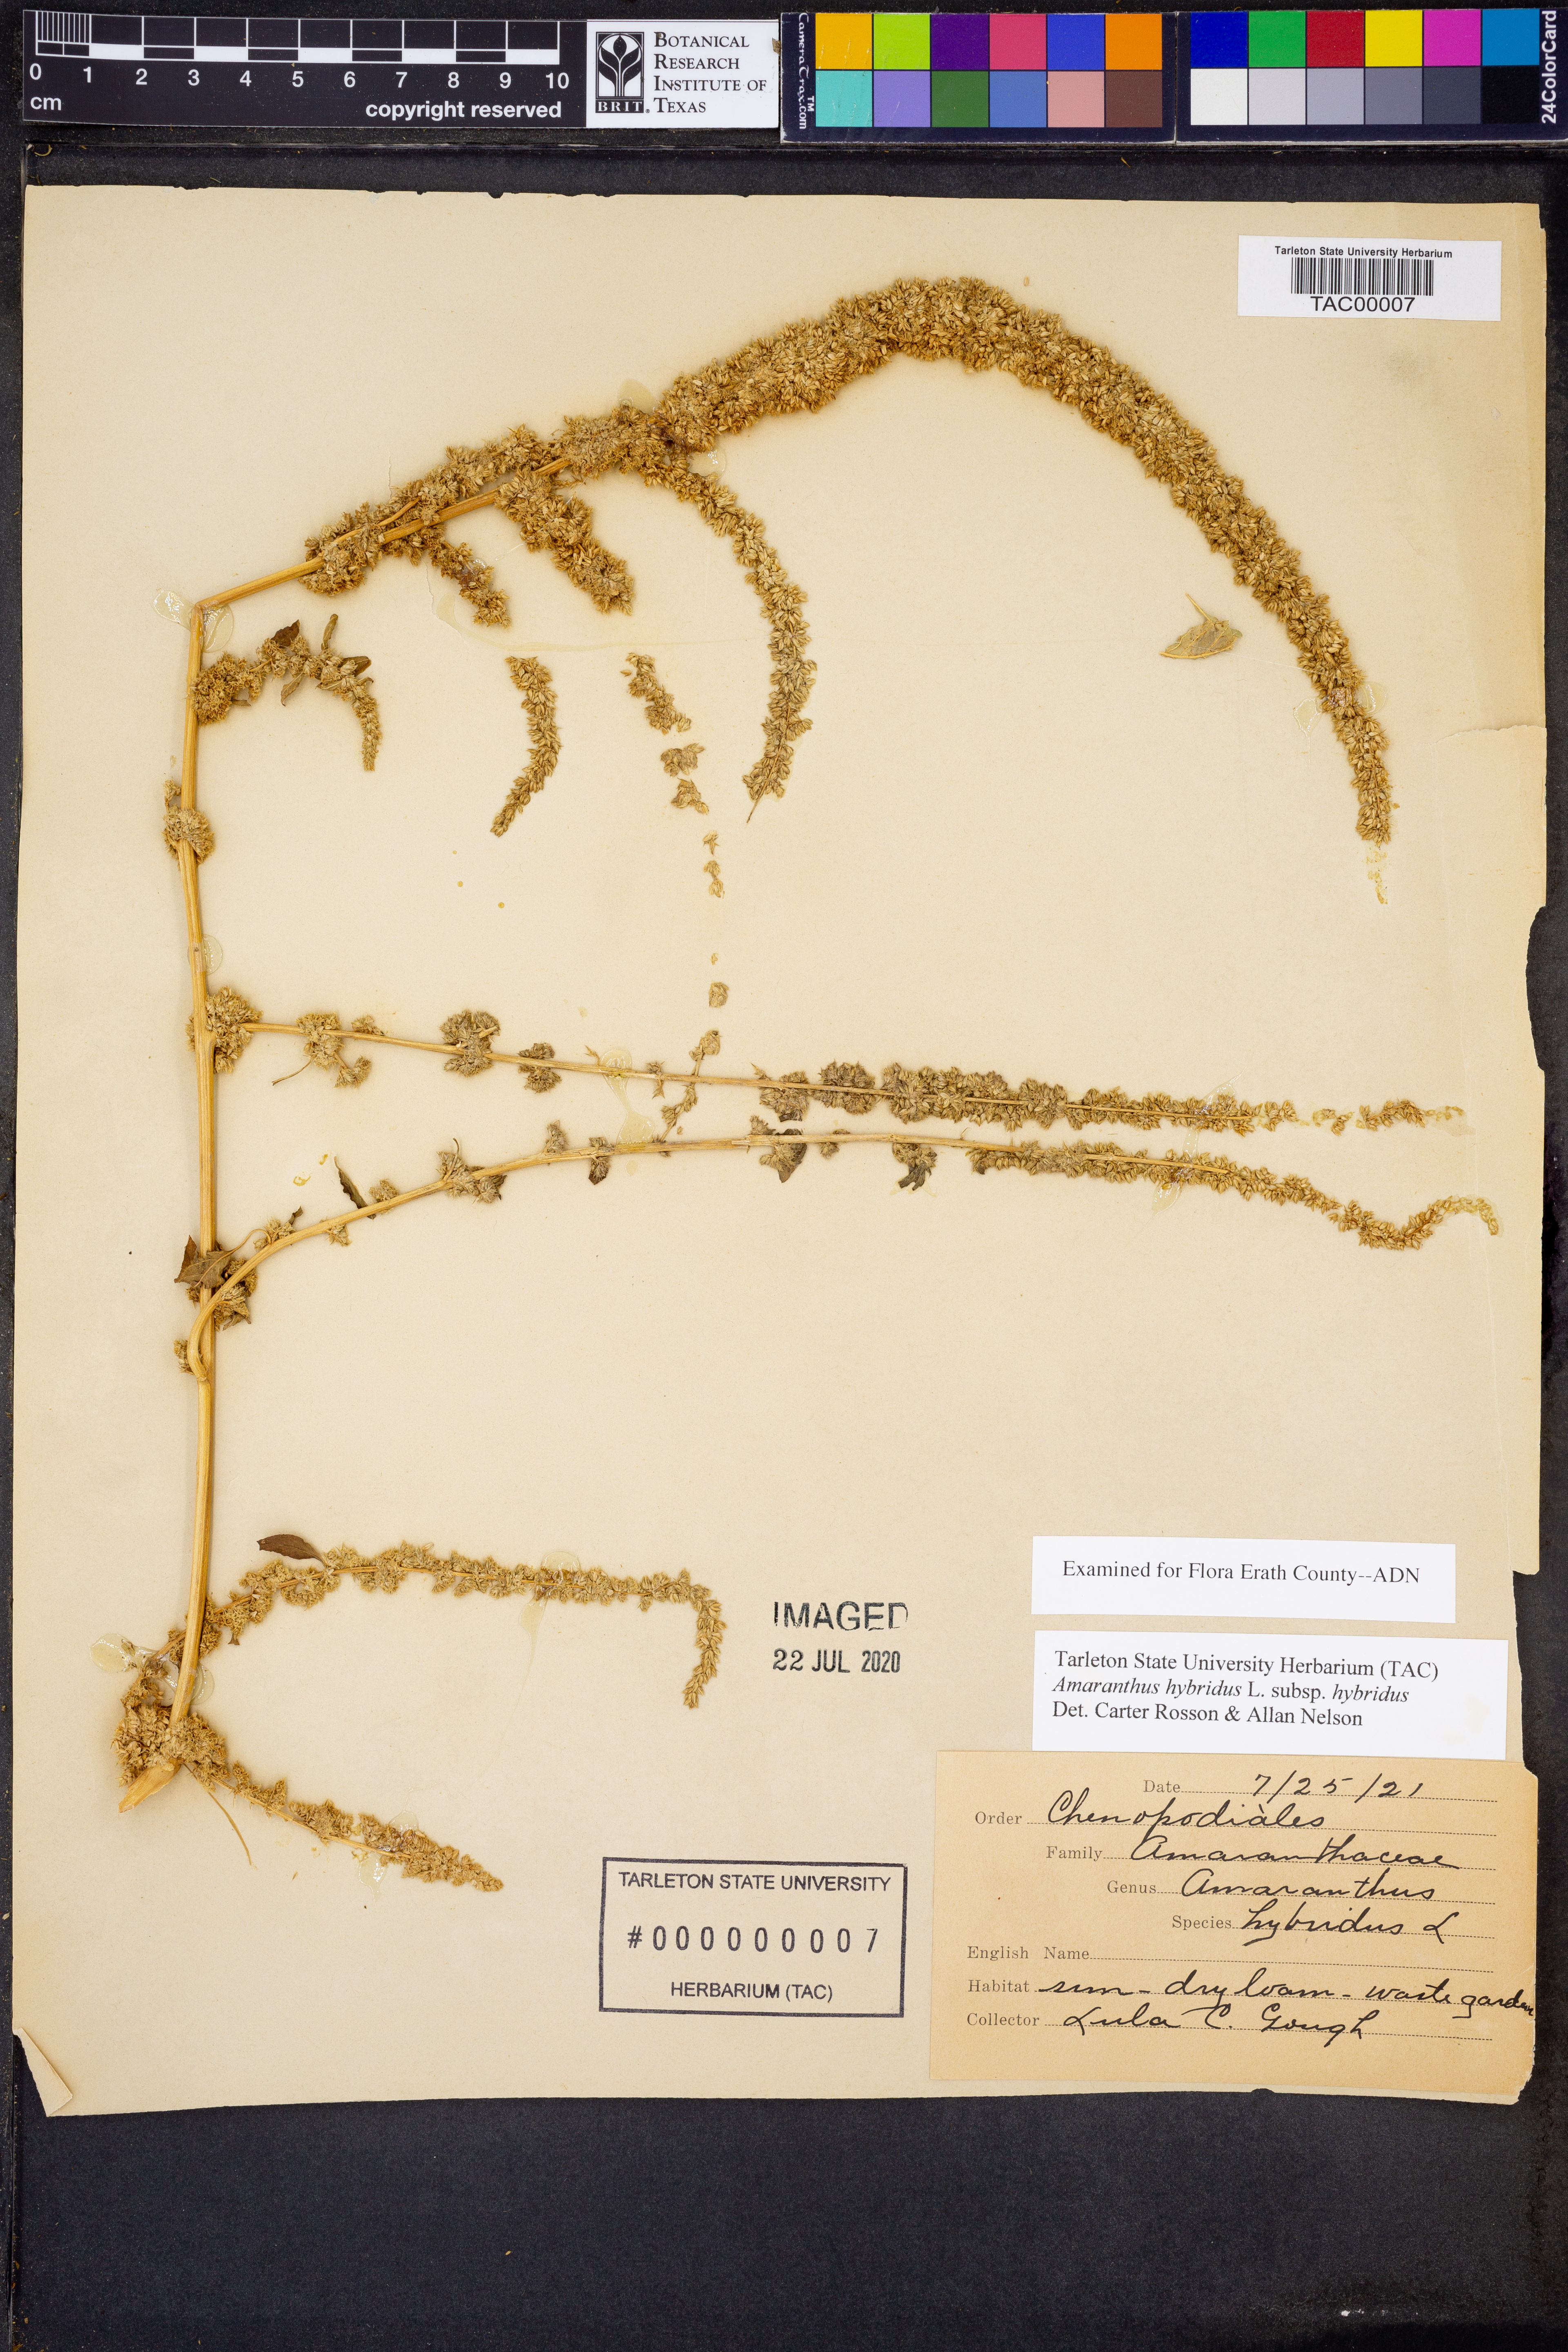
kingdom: Plantae
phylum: Tracheophyta
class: Magnoliopsida
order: Caryophyllales
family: Amaranthaceae
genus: Amaranthus
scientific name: Amaranthus hybridus
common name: Green amaranth
